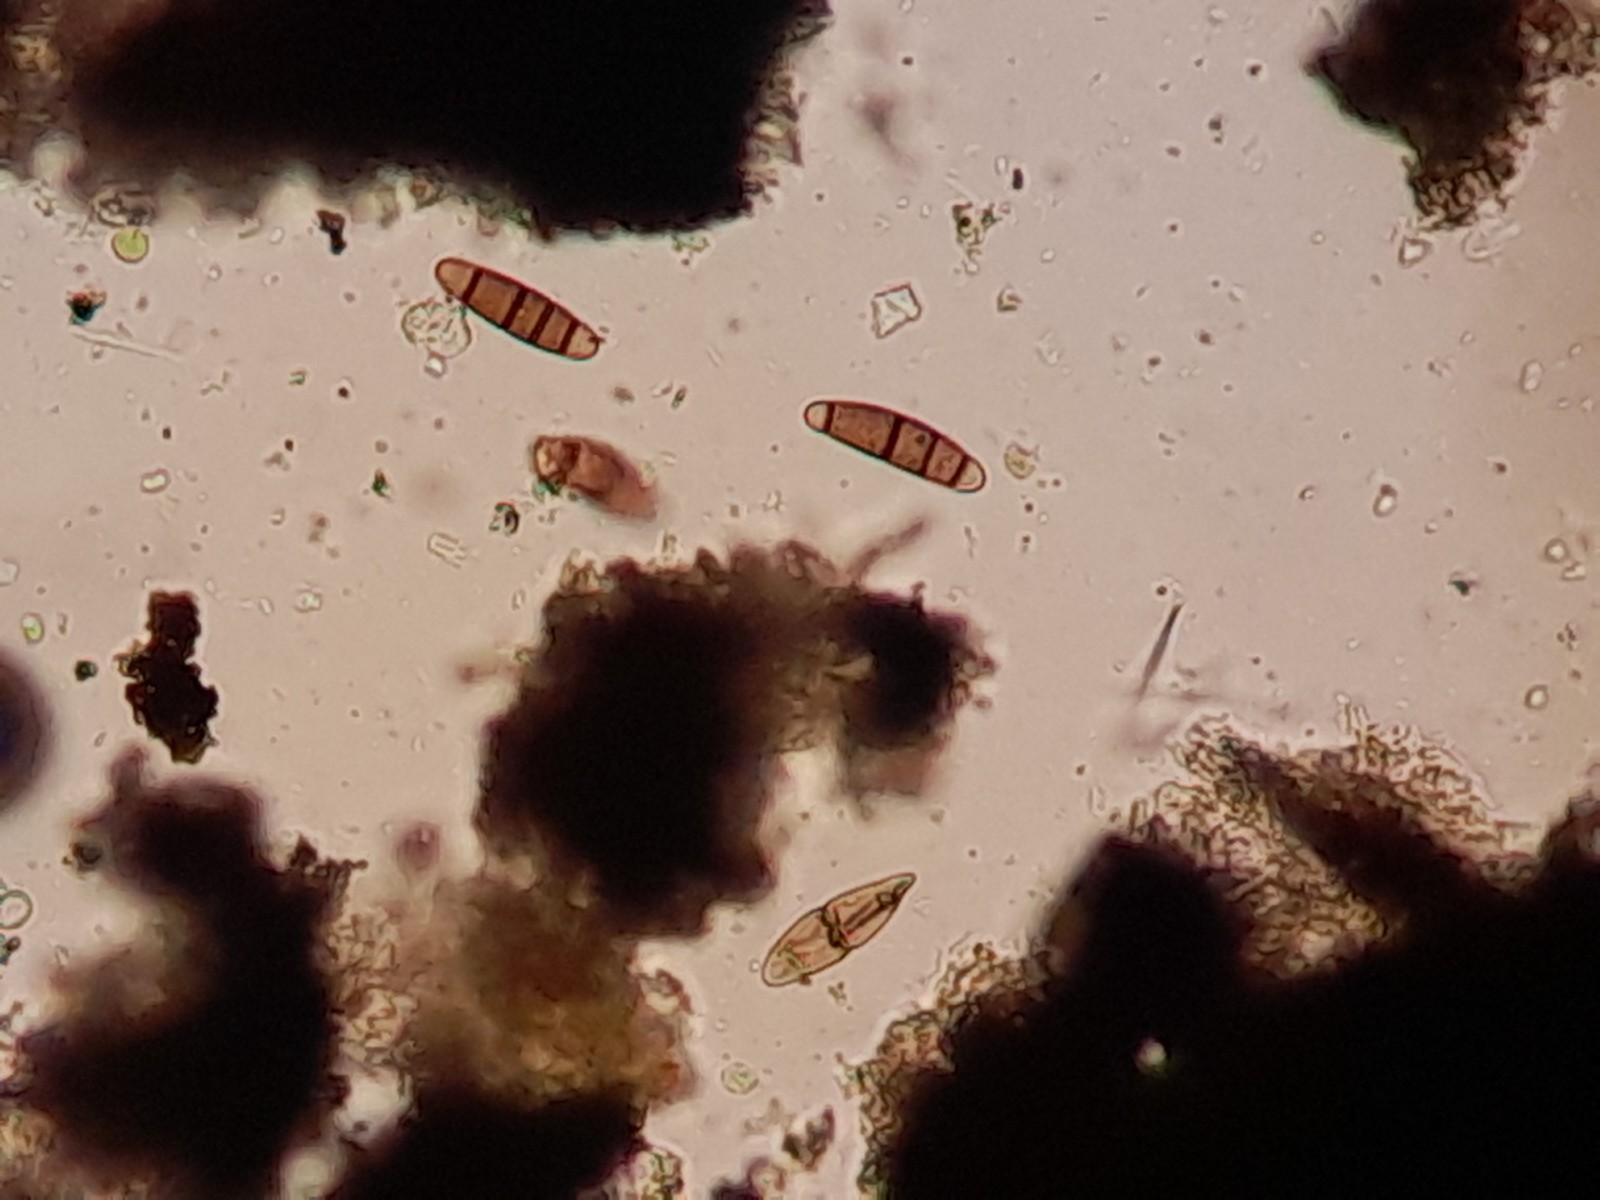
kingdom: Fungi
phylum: Ascomycota
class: Dothideomycetes
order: Hysteriales
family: Hysteriaceae
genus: Hysterium
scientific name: Hysterium pulicare
